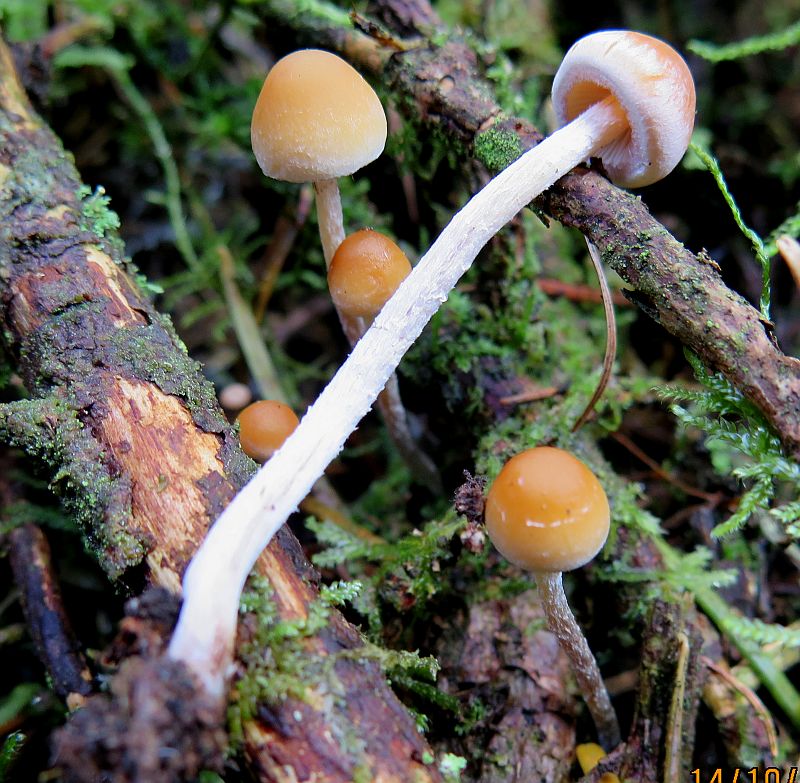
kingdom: Fungi
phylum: Basidiomycota
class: Agaricomycetes
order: Agaricales
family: Strophariaceae
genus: Hypholoma
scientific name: Hypholoma marginatum
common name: enlig svovlhat
